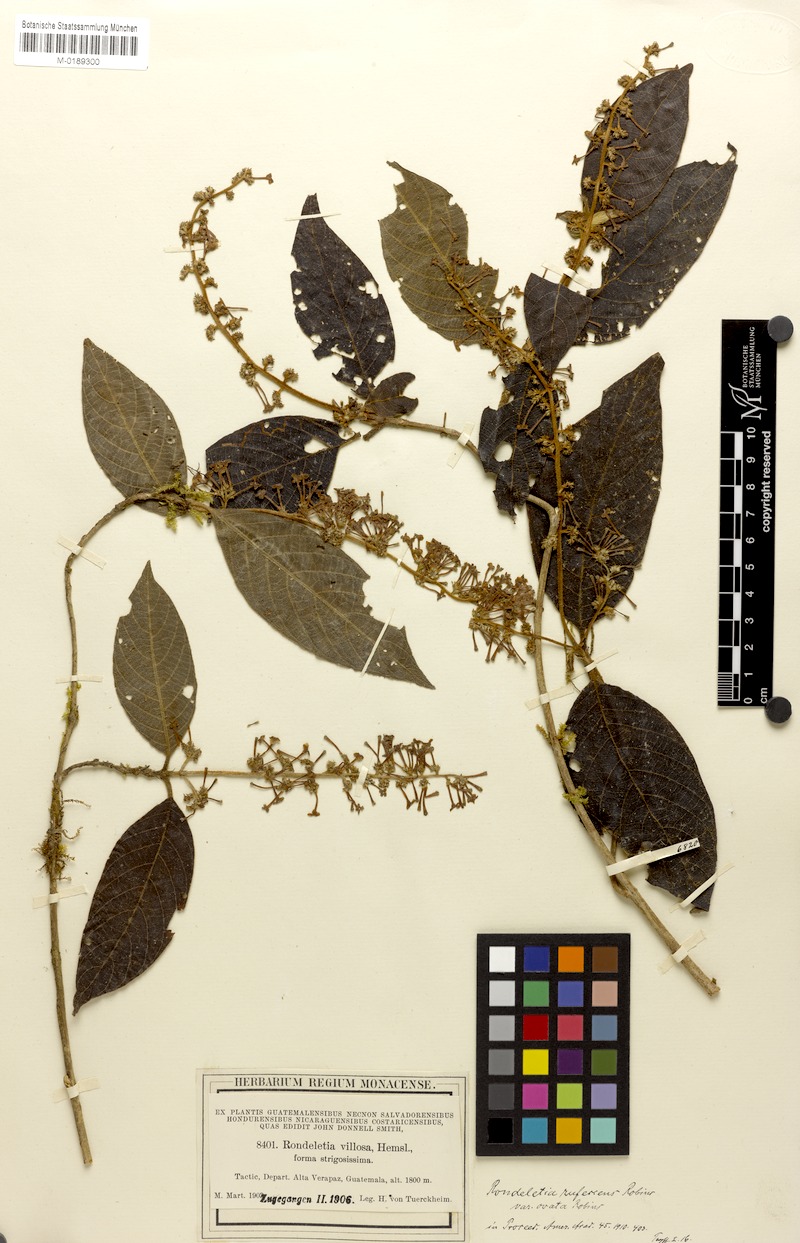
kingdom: Plantae
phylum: Tracheophyta
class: Magnoliopsida
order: Gentianales
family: Rubiaceae
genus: Arachnothryx
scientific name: Arachnothryx rufescens
